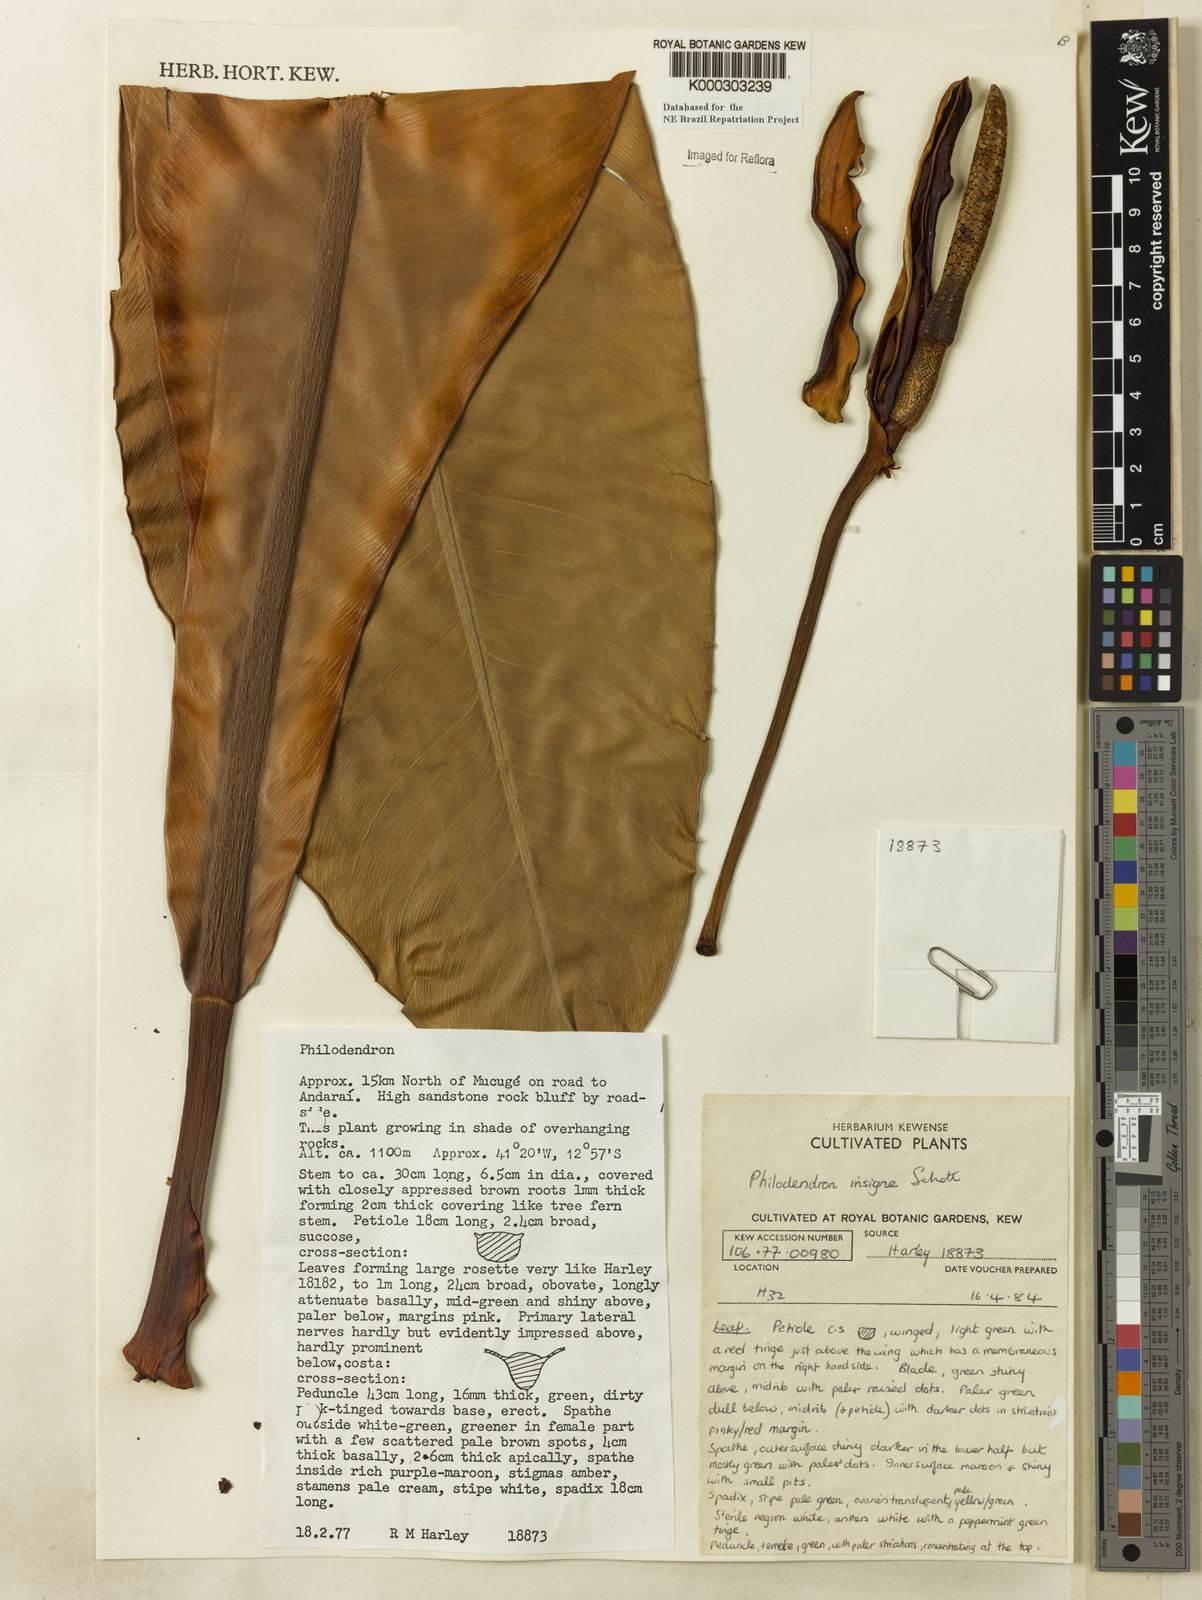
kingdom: Plantae
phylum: Tracheophyta
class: Liliopsida
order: Alismatales
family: Araceae
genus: Philodendron
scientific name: Philodendron insigne
